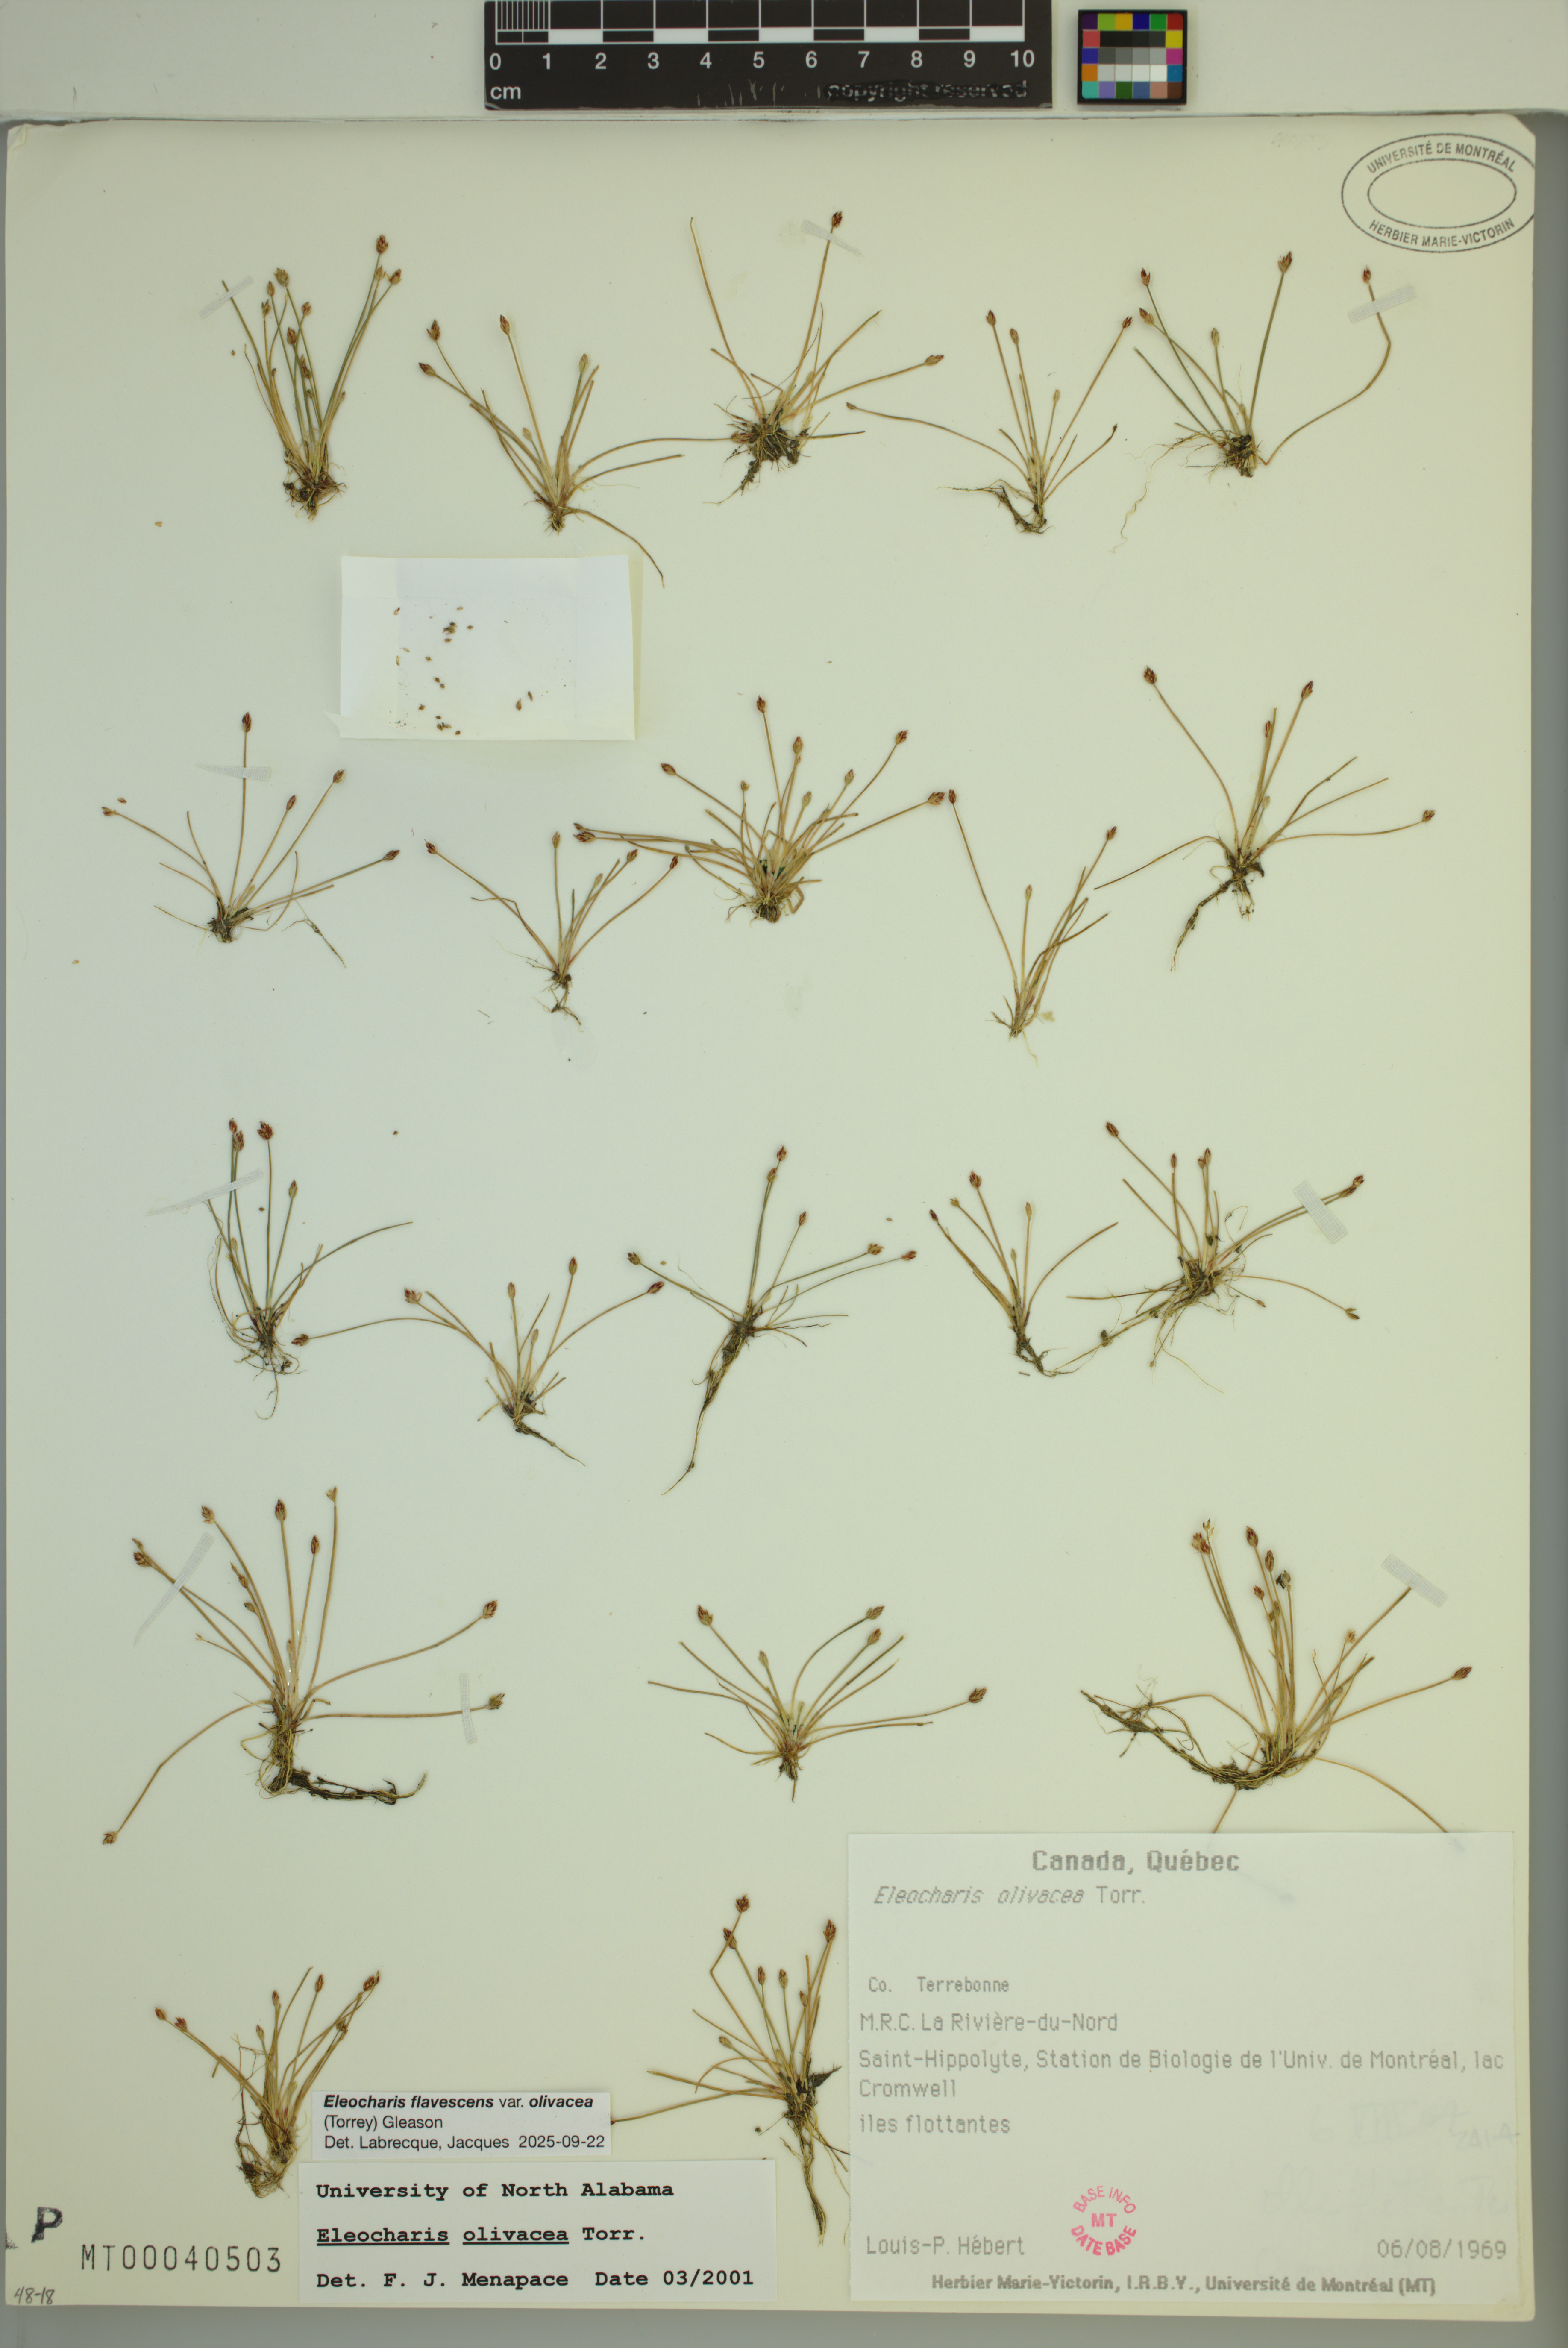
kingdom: Plantae
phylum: Tracheophyta
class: Liliopsida
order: Poales
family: Cyperaceae
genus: Eleocharis
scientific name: Eleocharis flavescens
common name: Yellow spikerush
